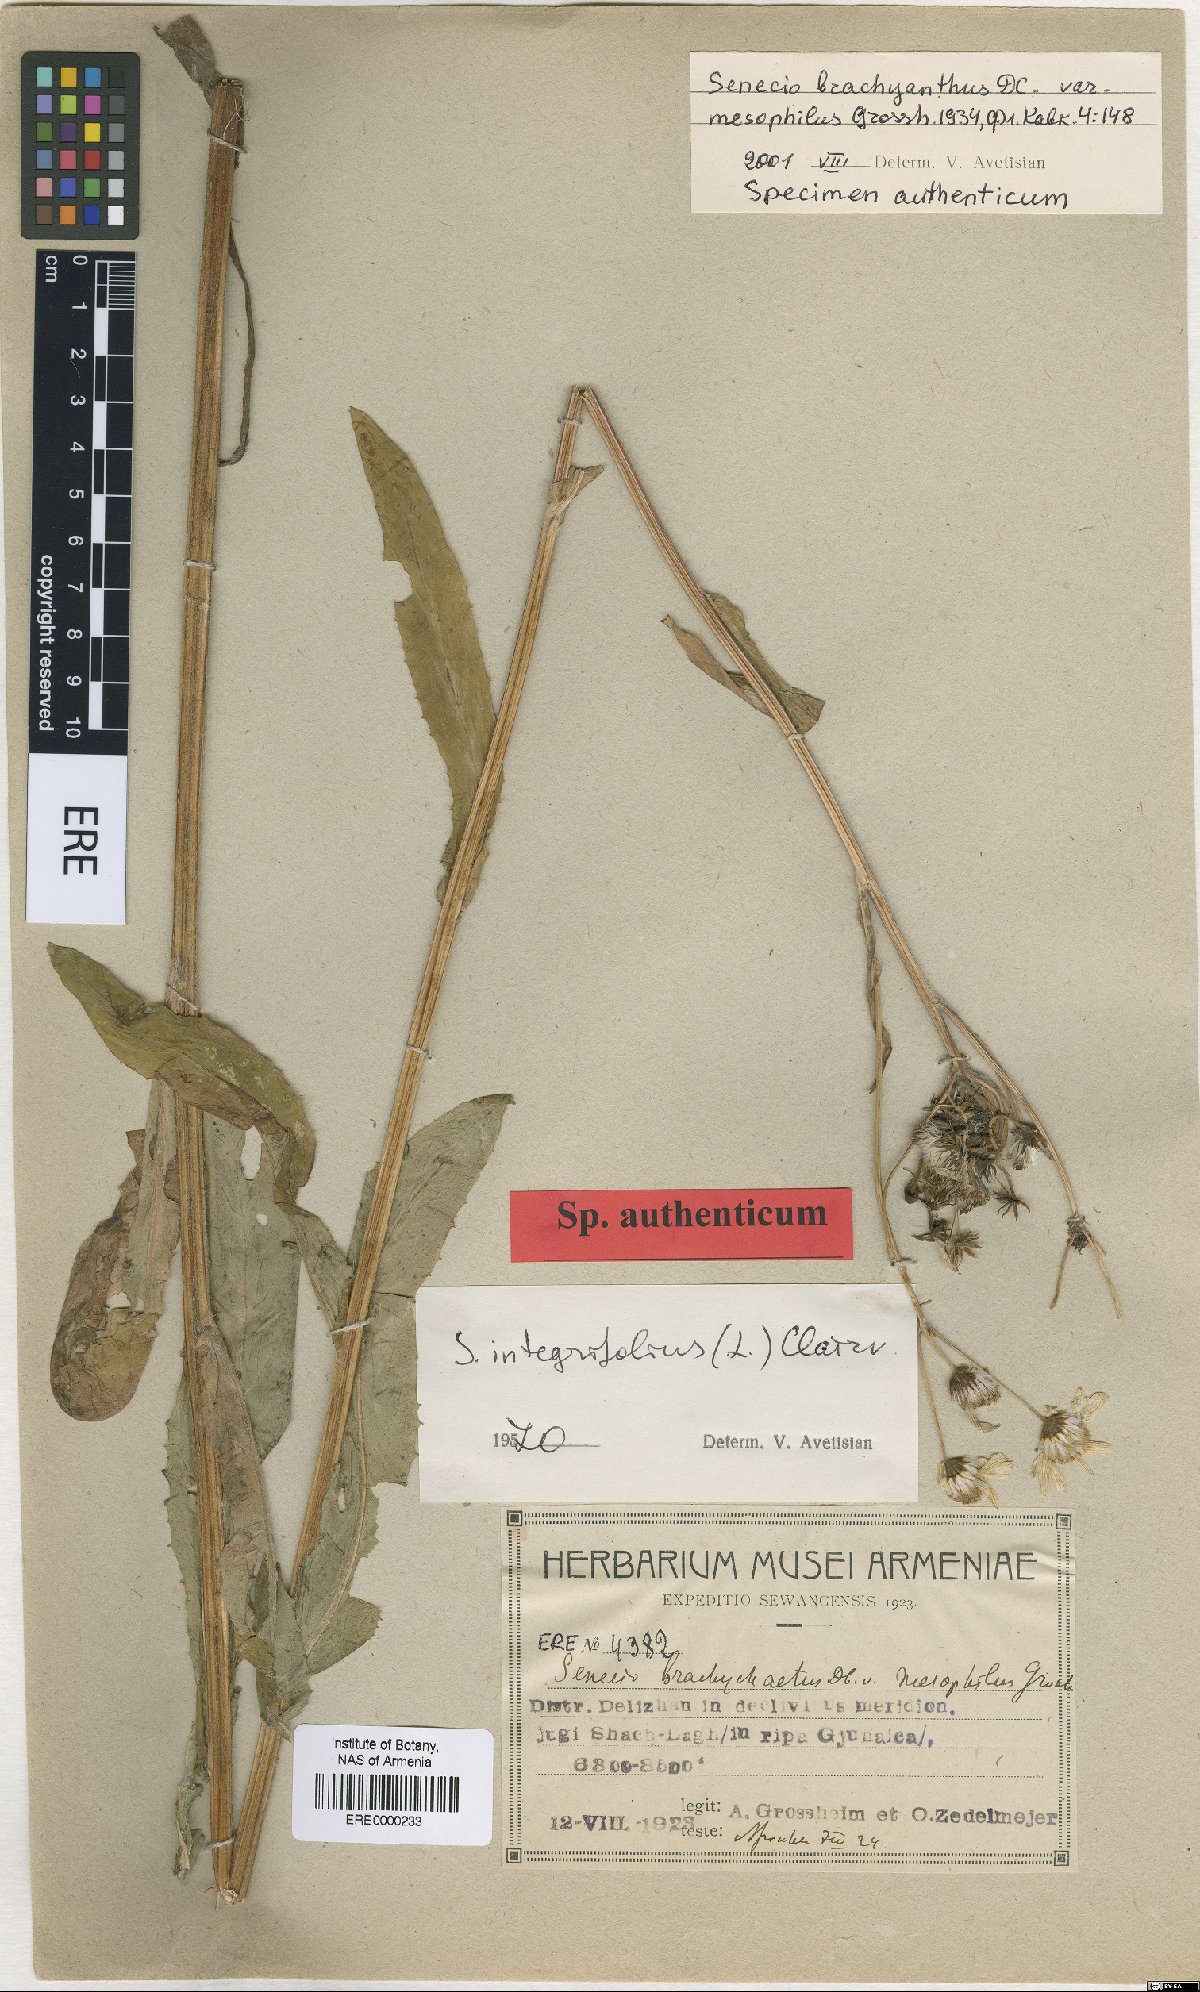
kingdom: Plantae
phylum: Tracheophyta
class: Magnoliopsida
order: Asterales
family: Asteraceae
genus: Tephroseris
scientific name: Tephroseris
